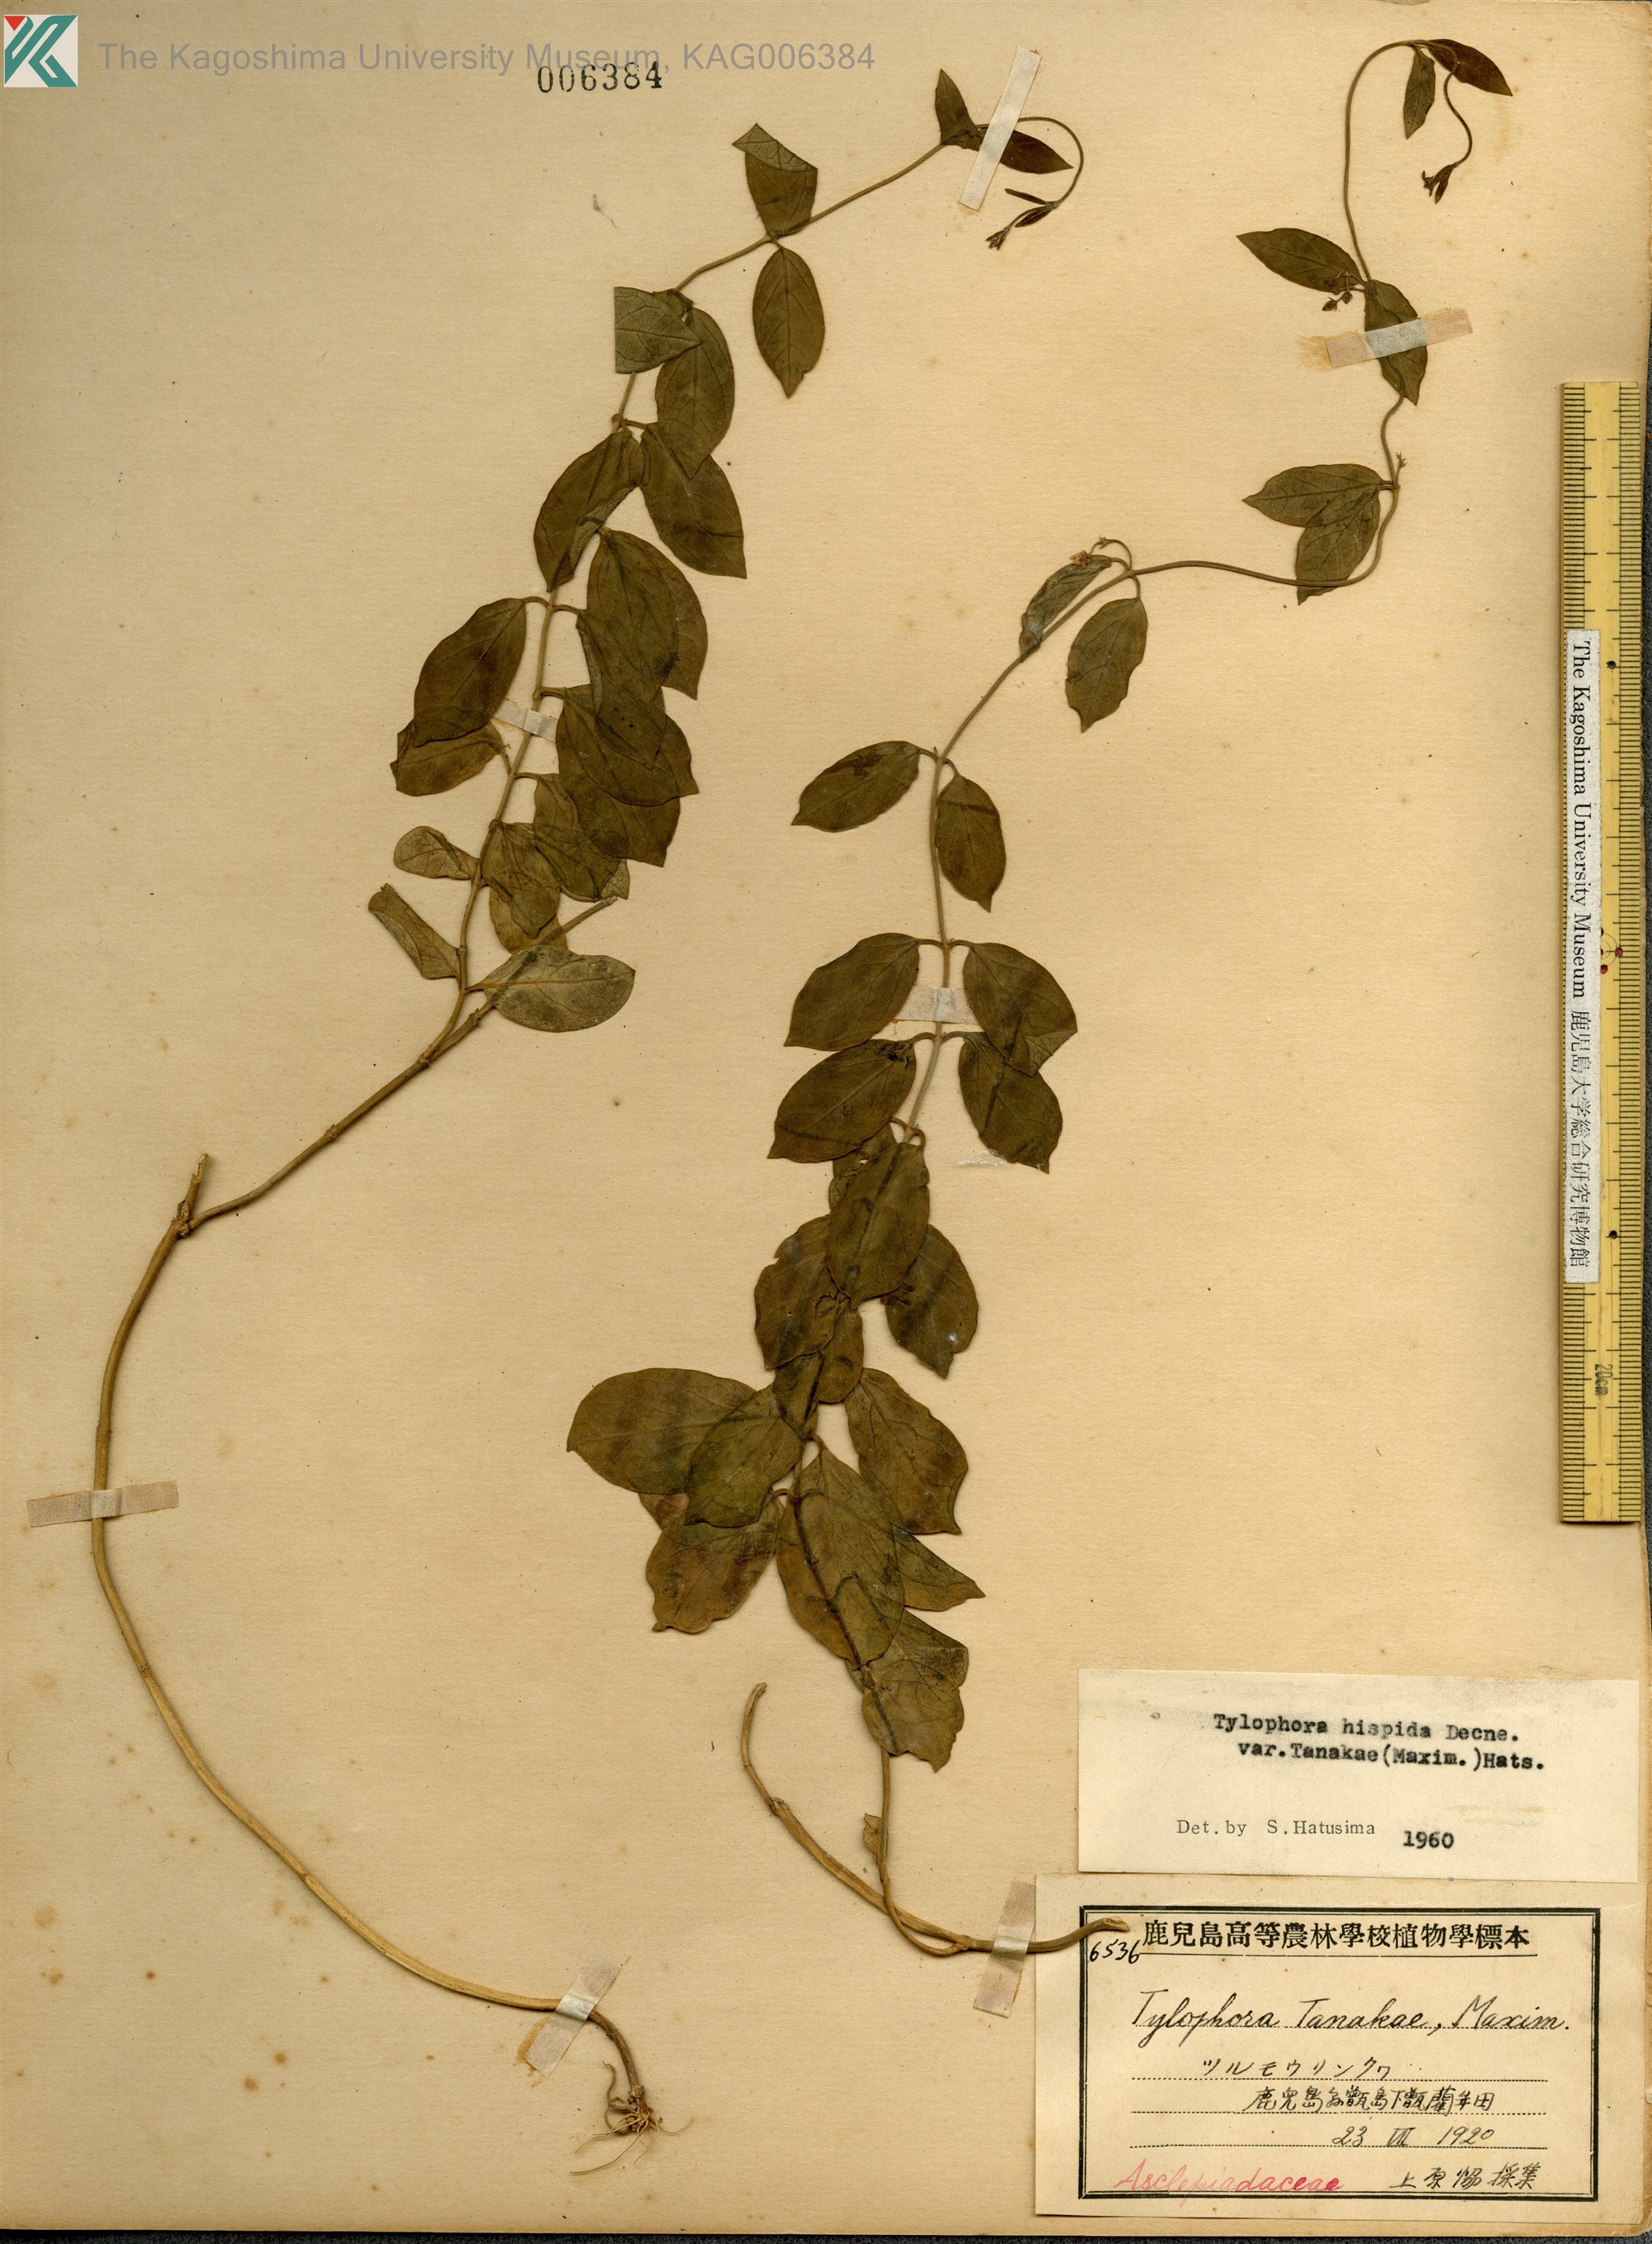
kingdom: Plantae
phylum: Tracheophyta
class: Magnoliopsida
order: Gentianales
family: Apocynaceae
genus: Vincetoxicum
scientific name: Vincetoxicum Tylophora tanakae
